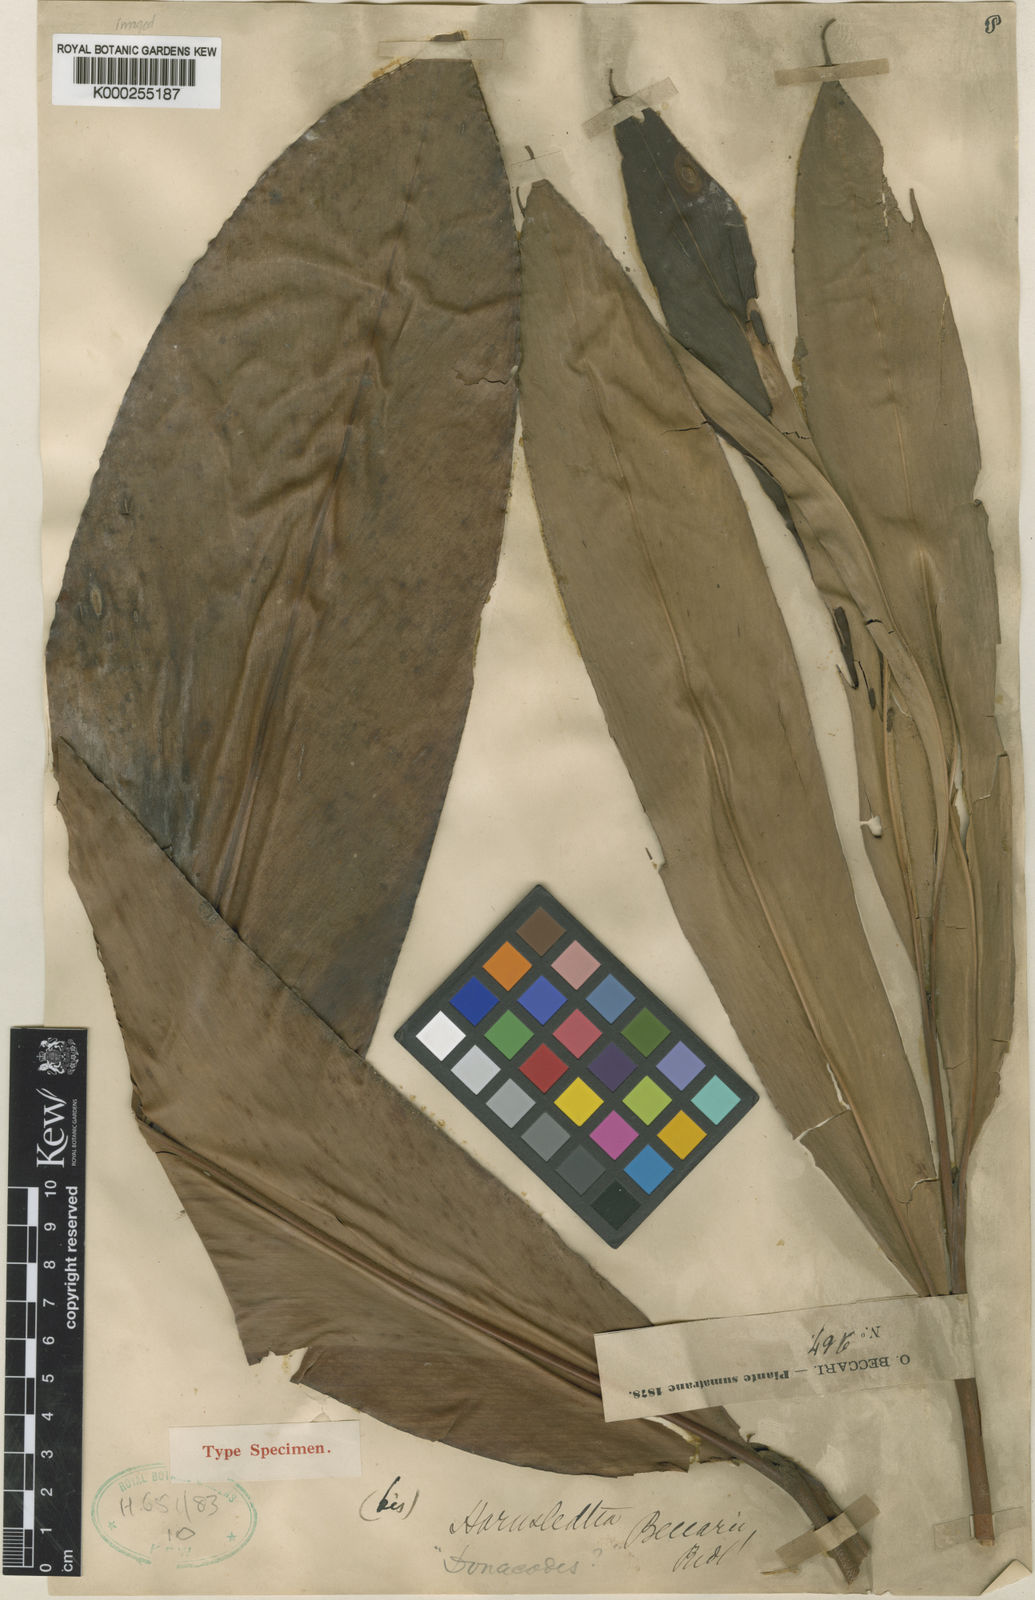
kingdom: Plantae
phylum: Tracheophyta
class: Liliopsida
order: Zingiberales
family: Zingiberaceae
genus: Amomum
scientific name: Amomum vestitum
